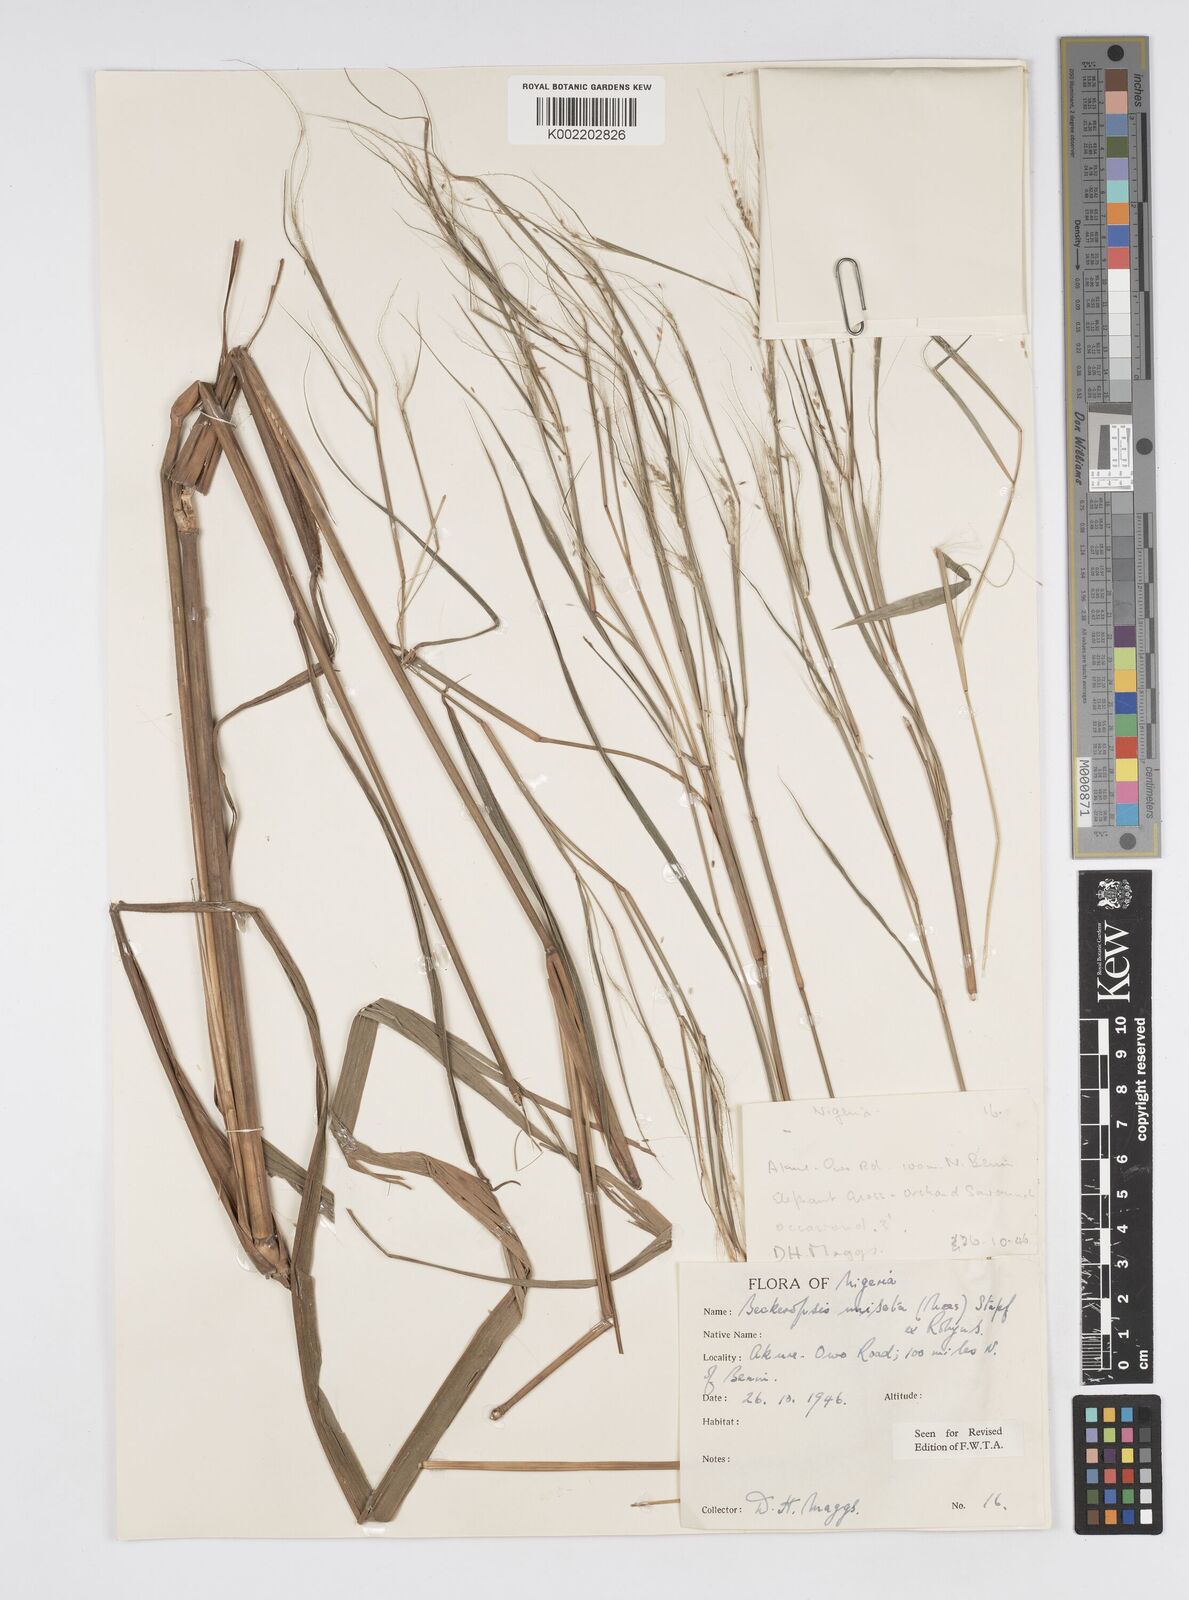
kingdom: Plantae
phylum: Tracheophyta
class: Liliopsida
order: Poales
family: Poaceae
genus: Cenchrus
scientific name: Cenchrus unisetus
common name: Natal grass
